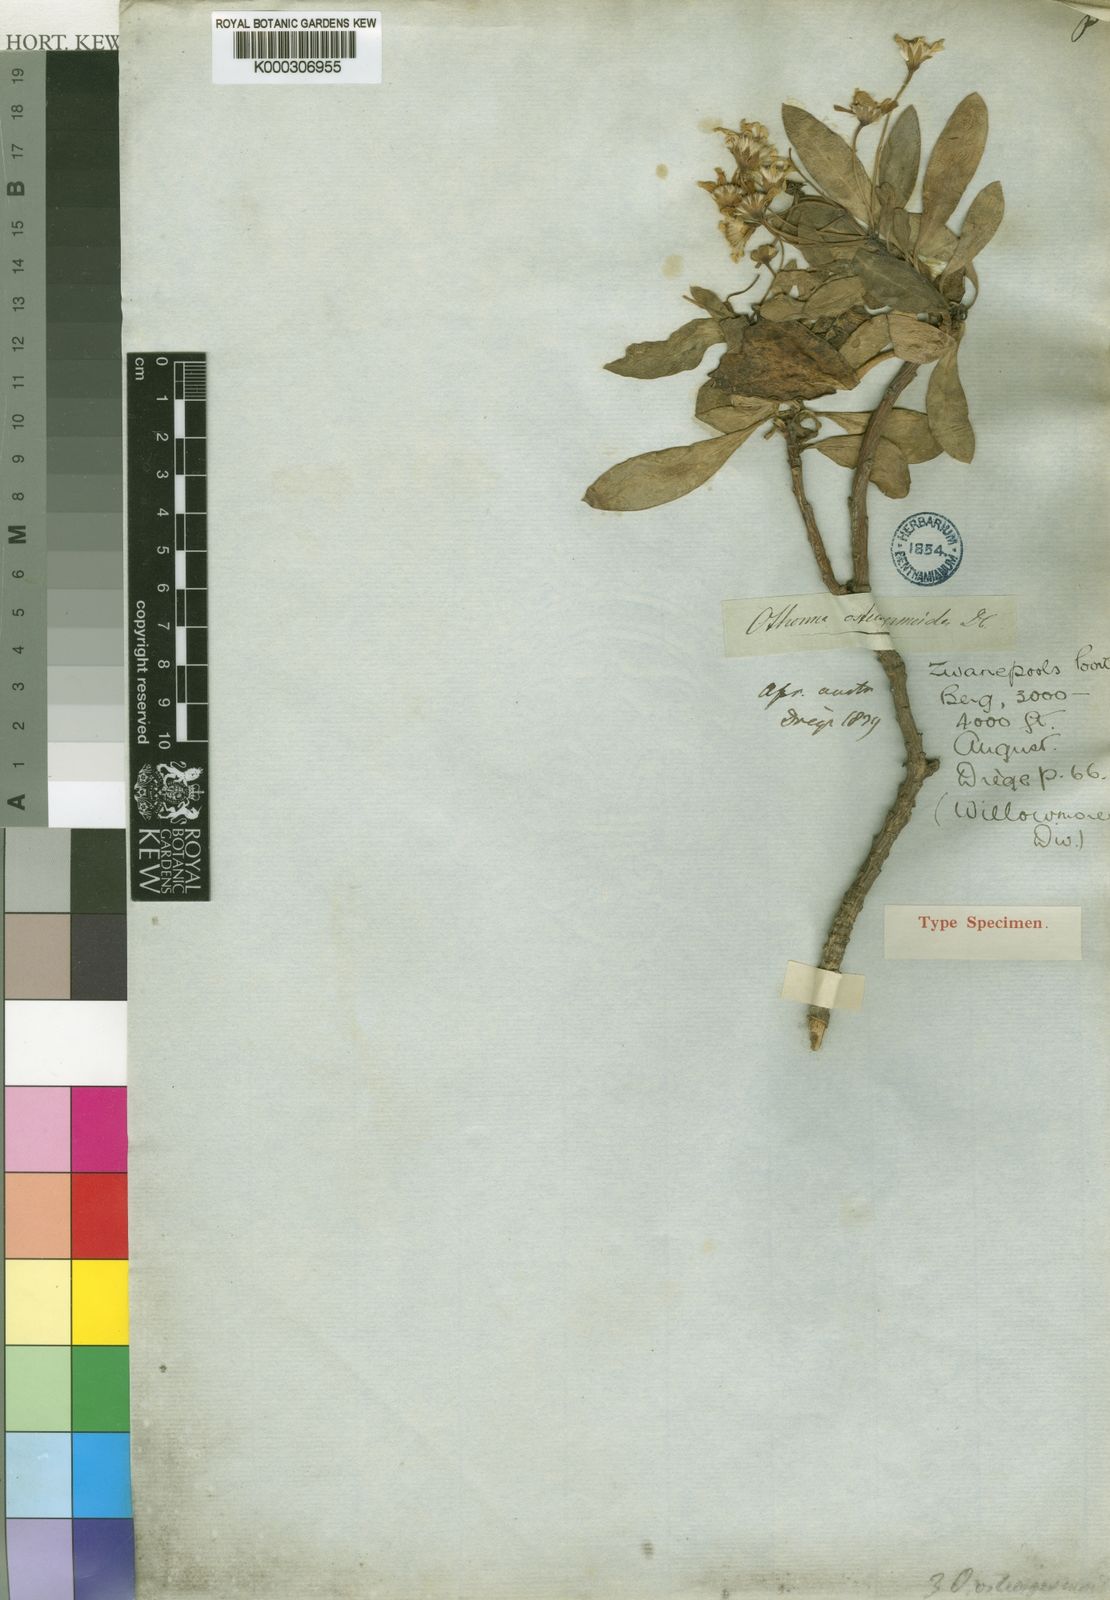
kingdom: Plantae
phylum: Tracheophyta
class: Magnoliopsida
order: Asterales
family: Asteraceae
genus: Othonna
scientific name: Othonna osteospermoides
